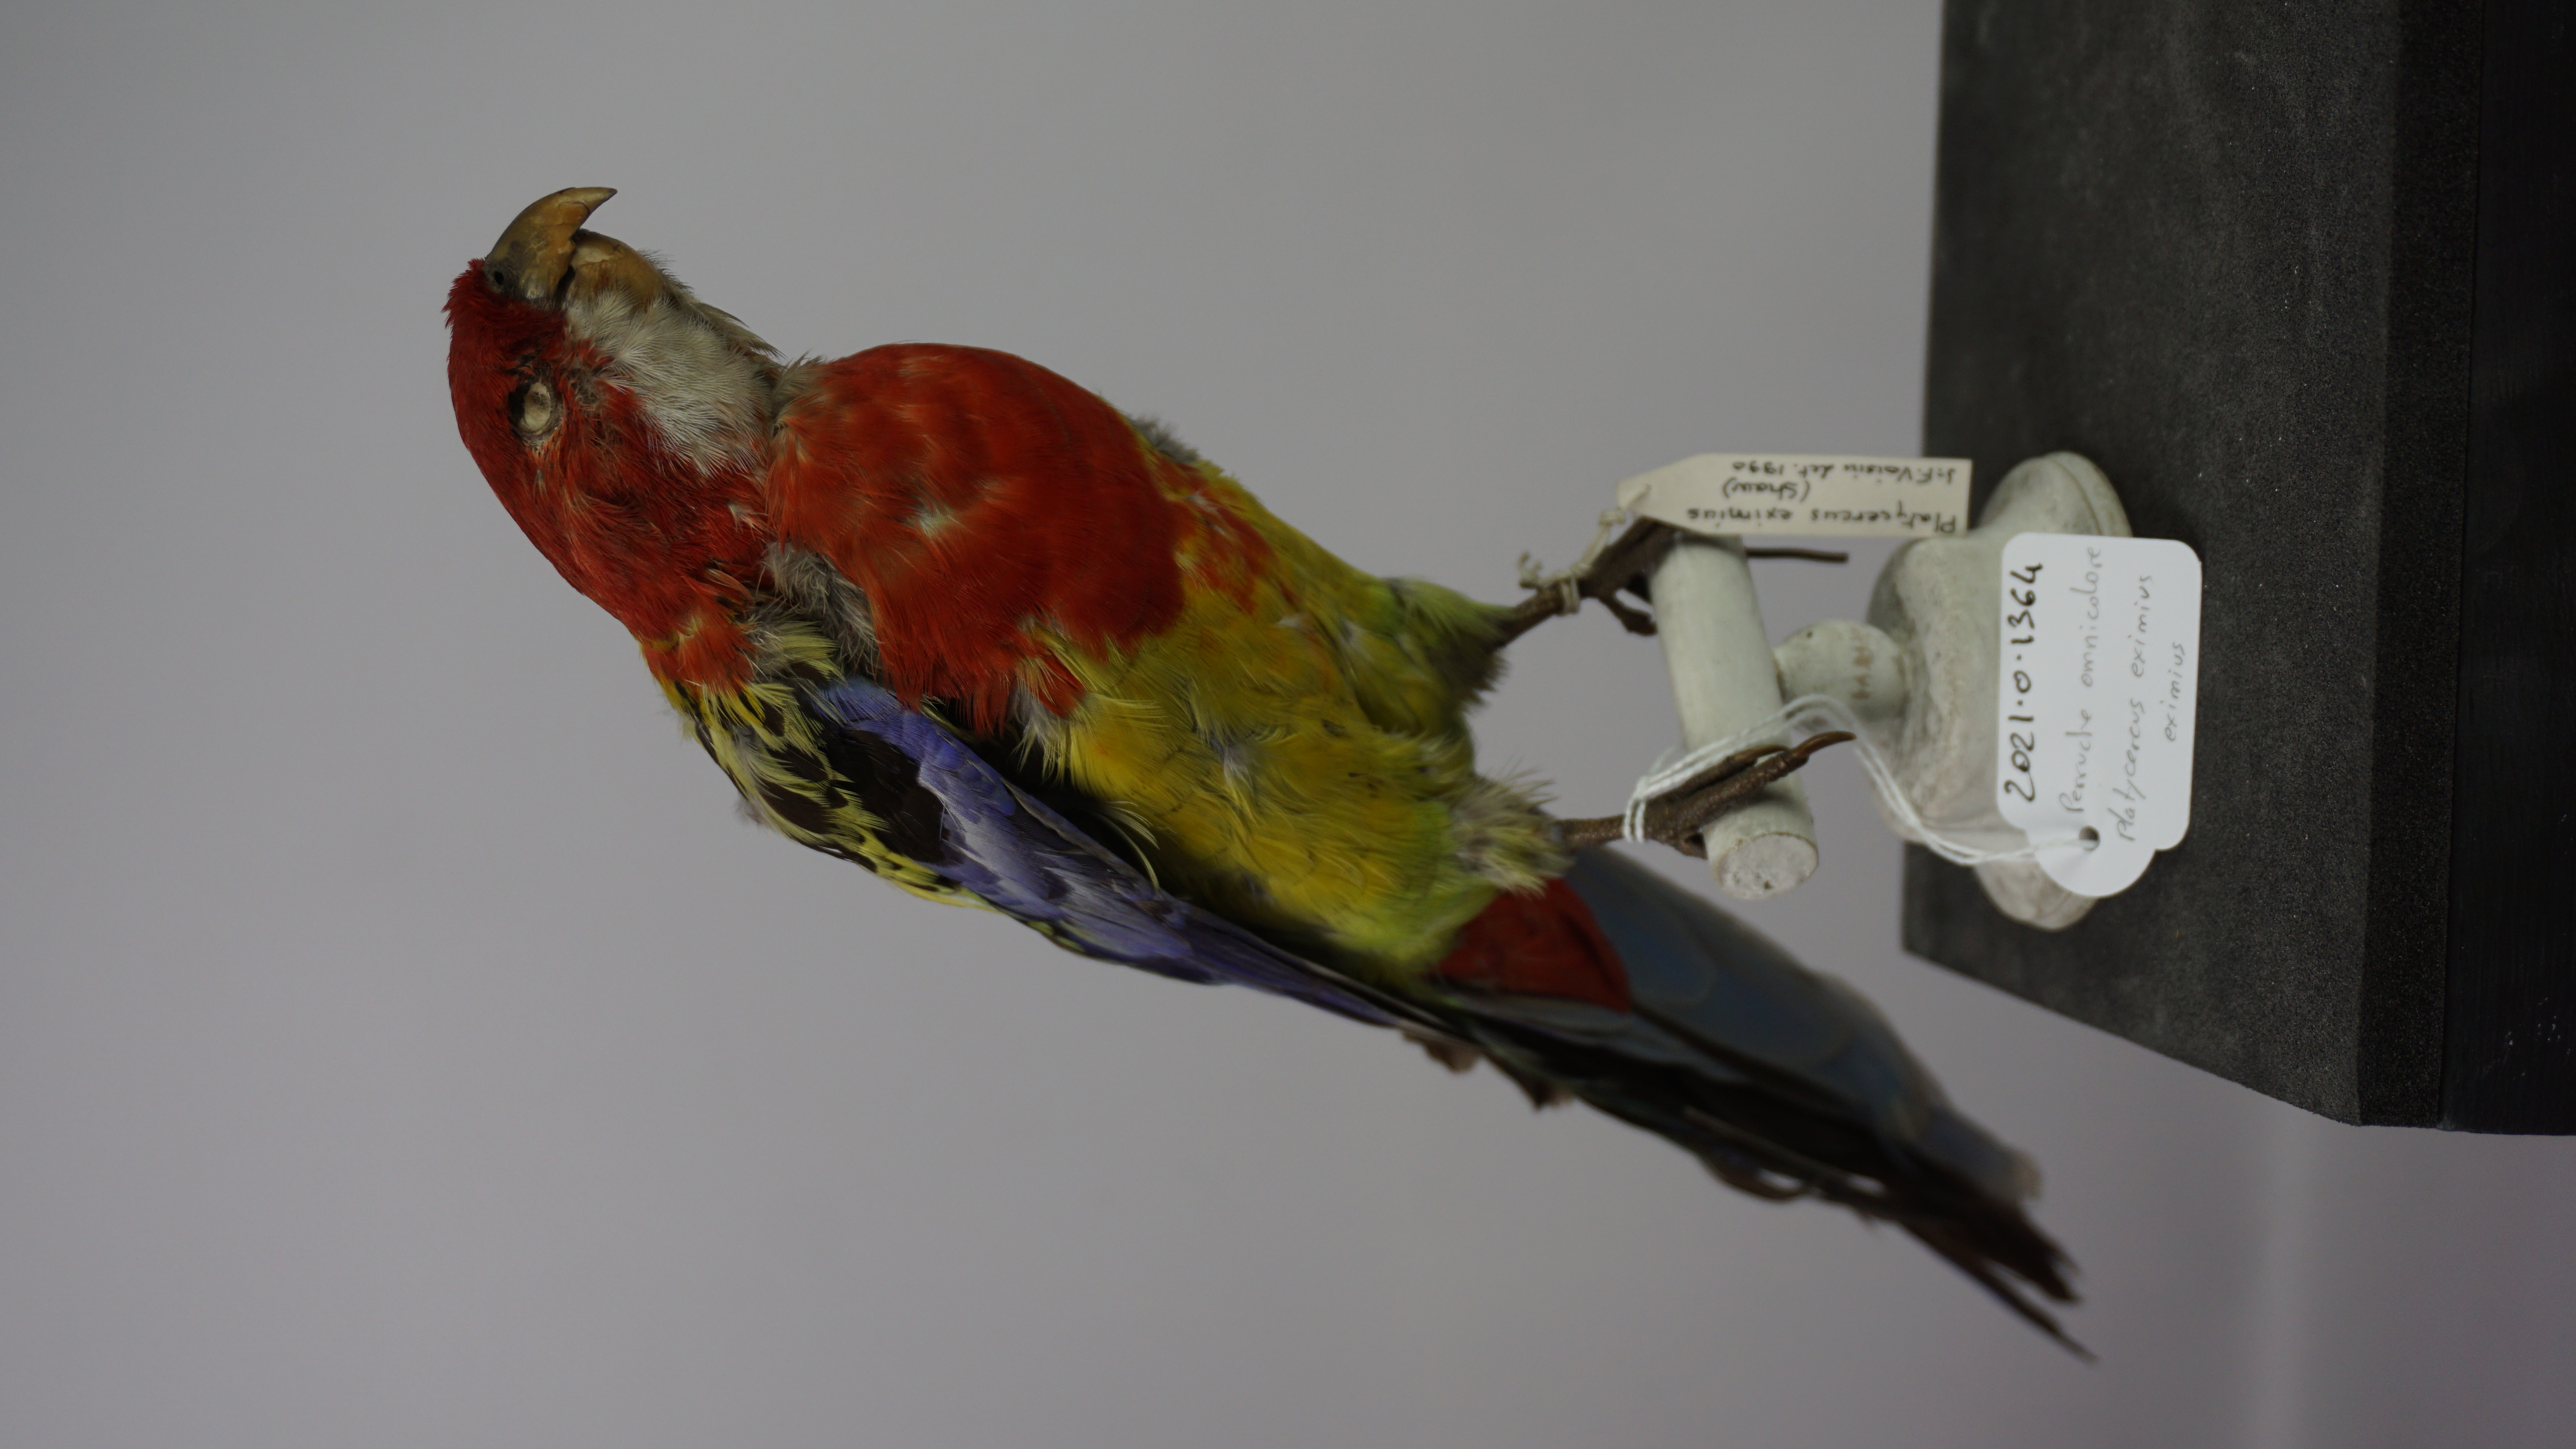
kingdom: Animalia
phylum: Chordata
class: Aves
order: Psittaciformes
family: Psittacidae
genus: Platycercus
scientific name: Platycercus eximius
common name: Eastern rosella
